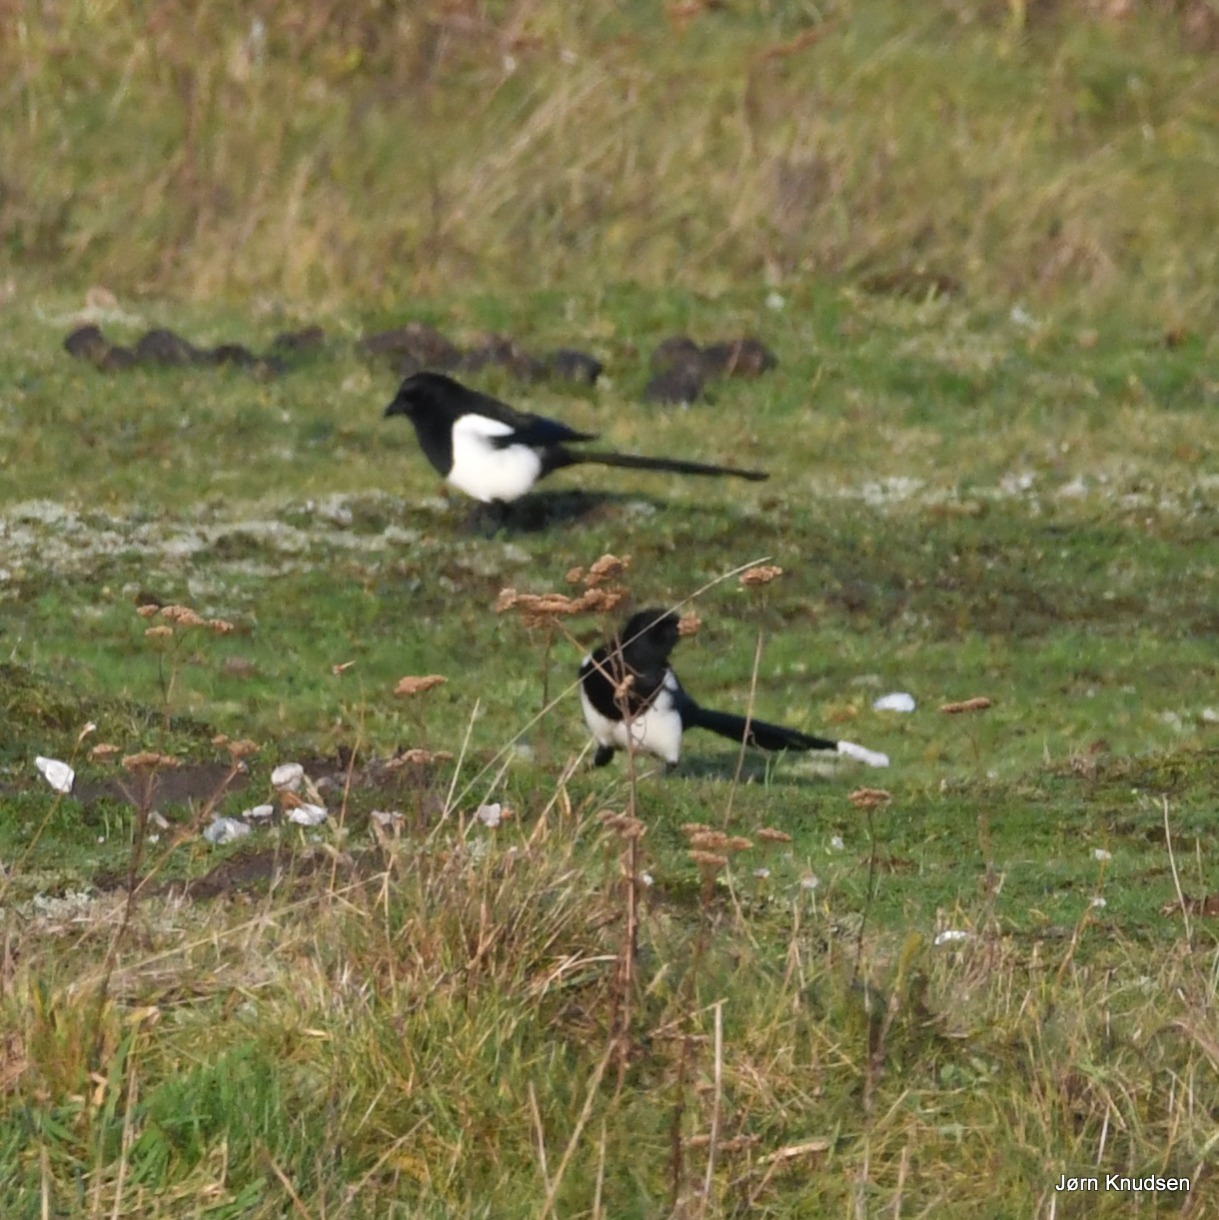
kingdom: Animalia
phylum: Chordata
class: Aves
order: Passeriformes
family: Corvidae
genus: Pica
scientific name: Pica pica
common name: Husskade
